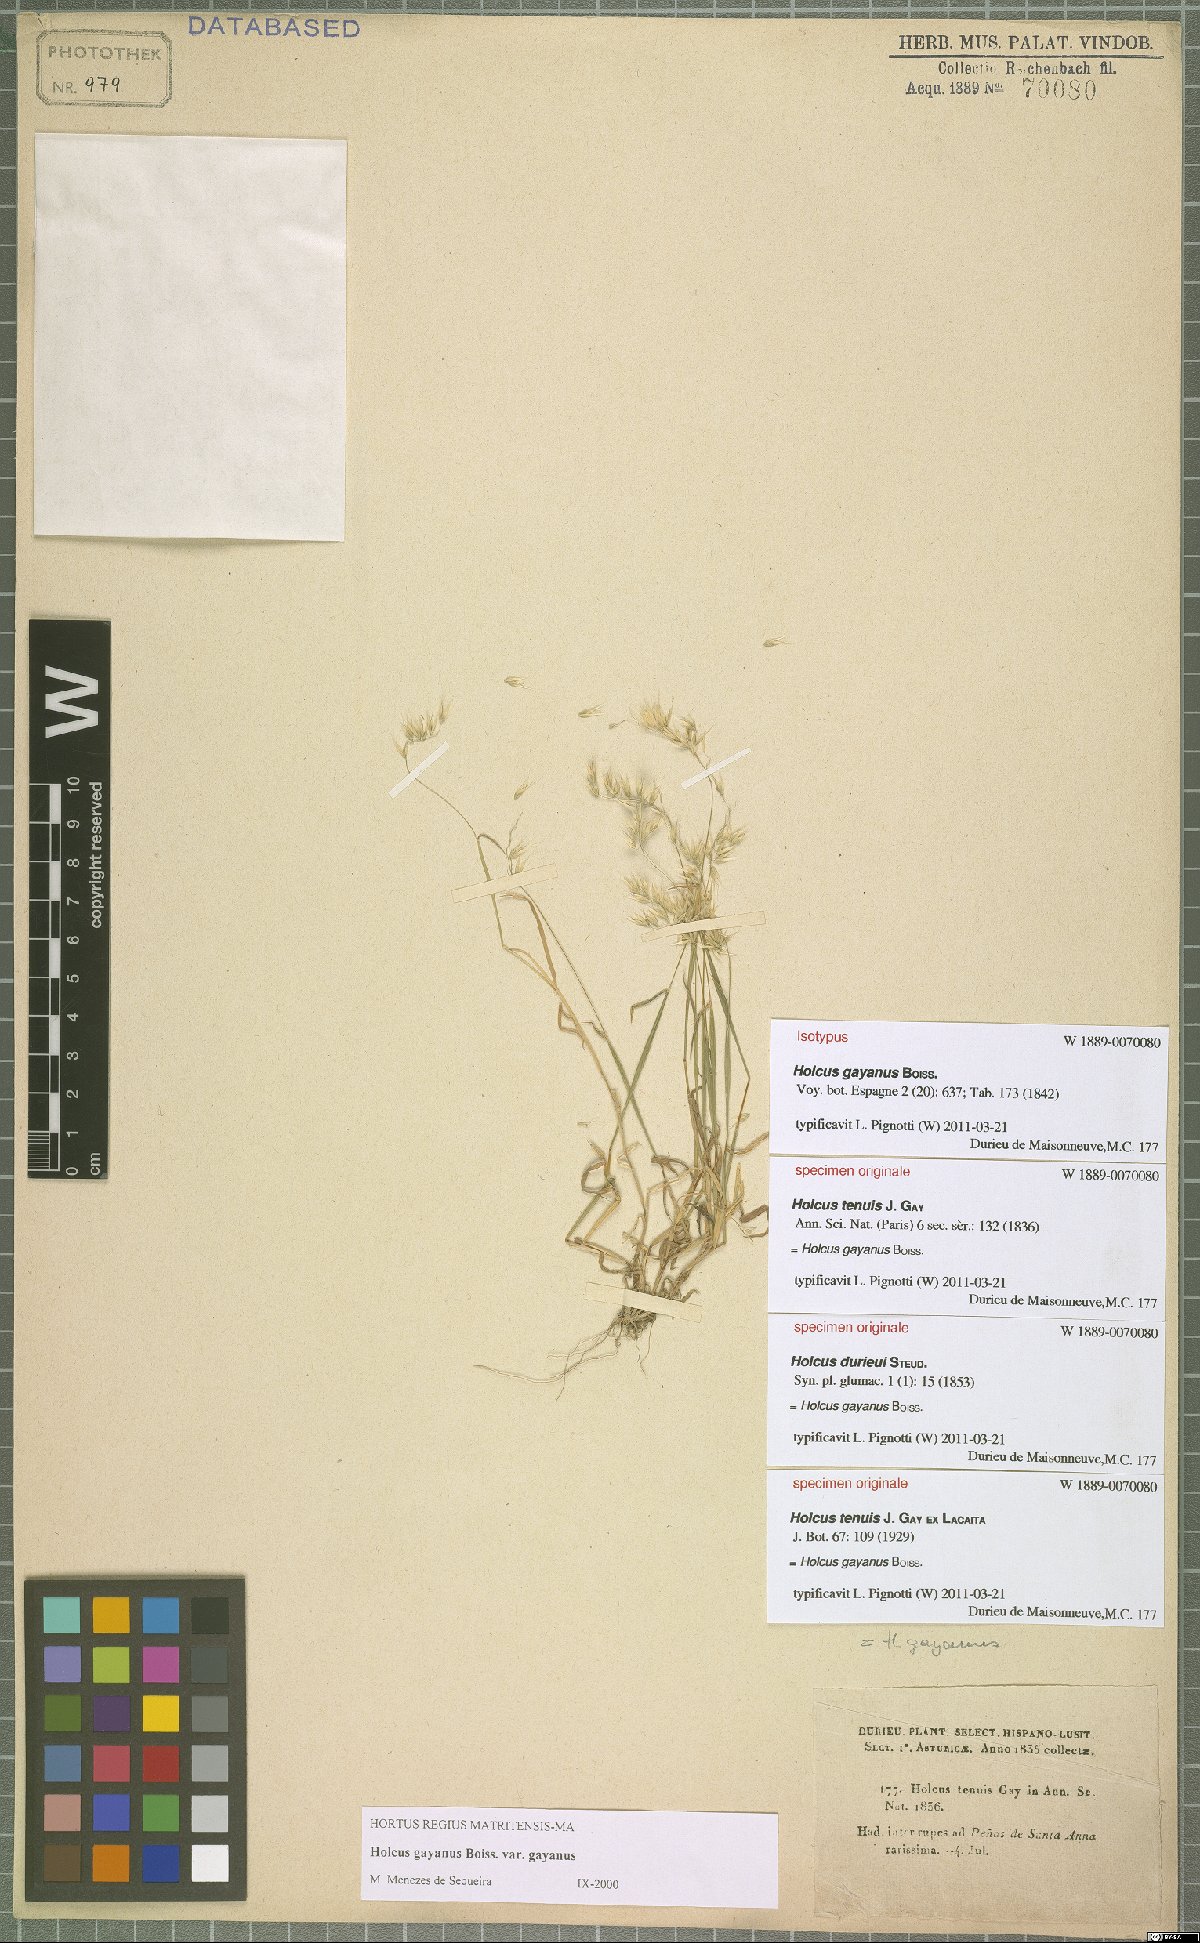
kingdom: Plantae
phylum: Tracheophyta
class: Liliopsida
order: Poales
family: Poaceae
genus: Holcus
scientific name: Holcus gayanus
